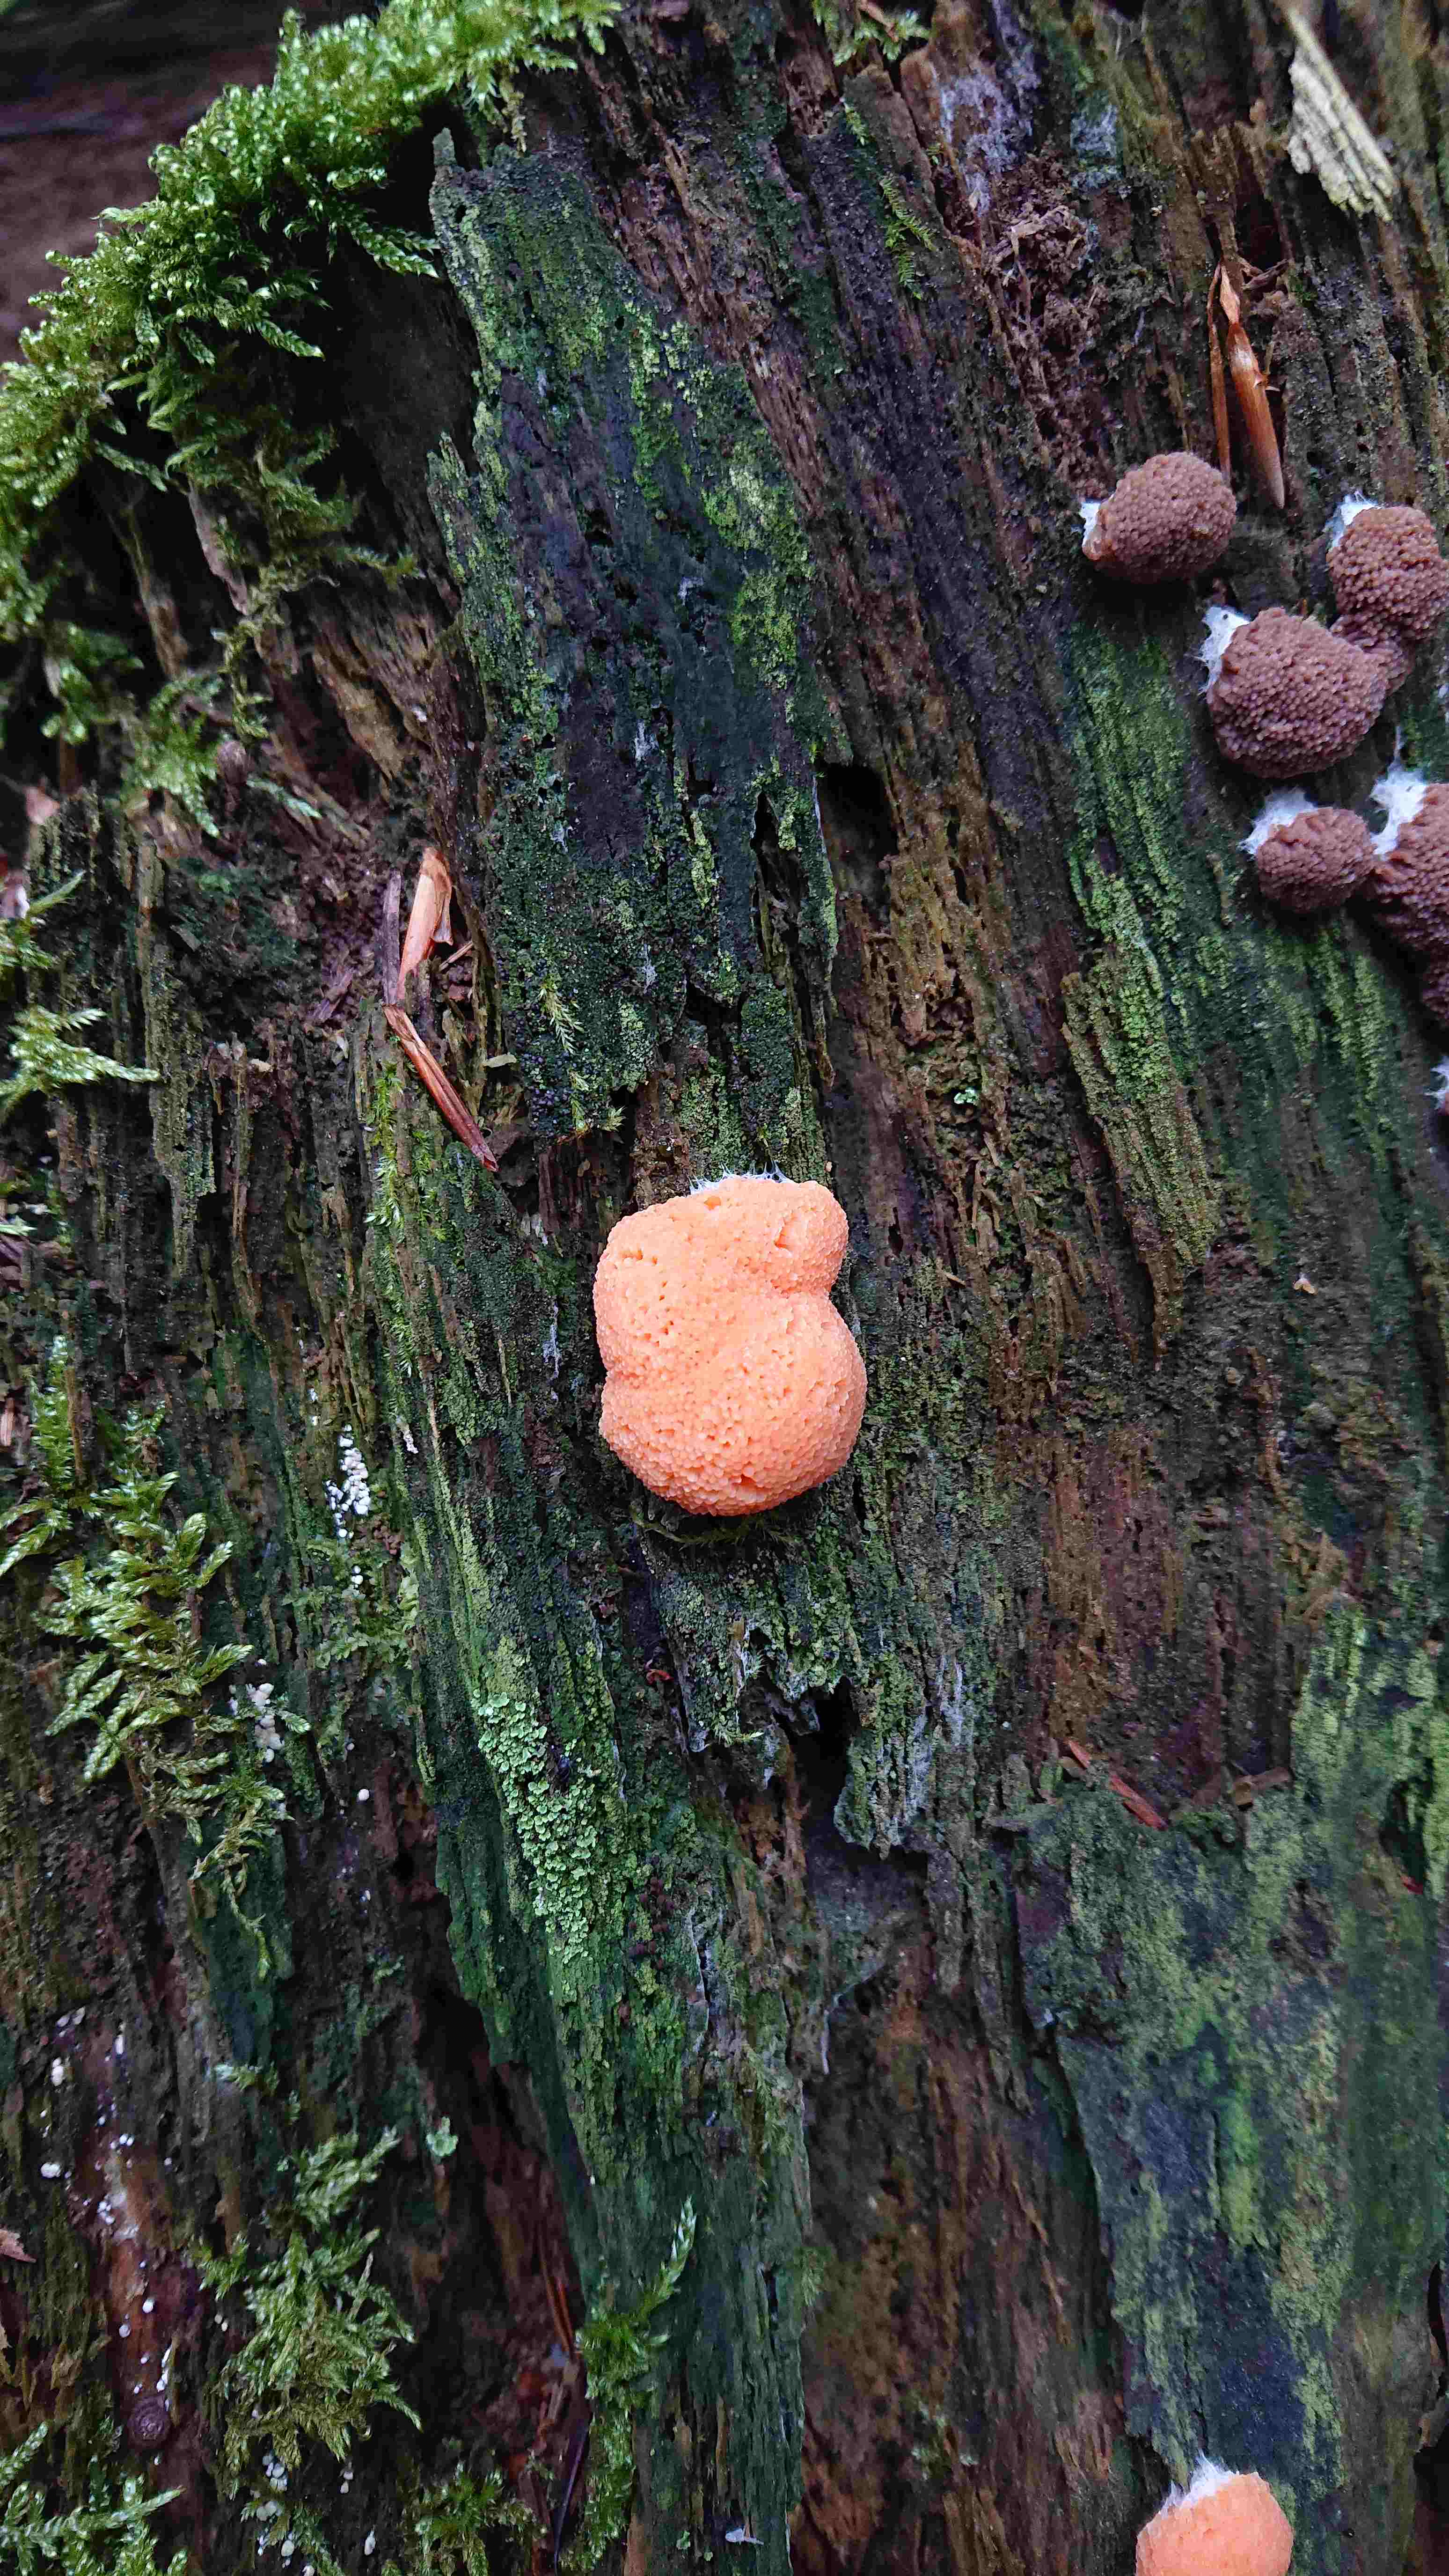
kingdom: Protozoa
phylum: Mycetozoa
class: Myxomycetes
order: Cribrariales
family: Tubiferaceae
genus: Tubifera
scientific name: Tubifera ferruginosa
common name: kanel-støvrør
